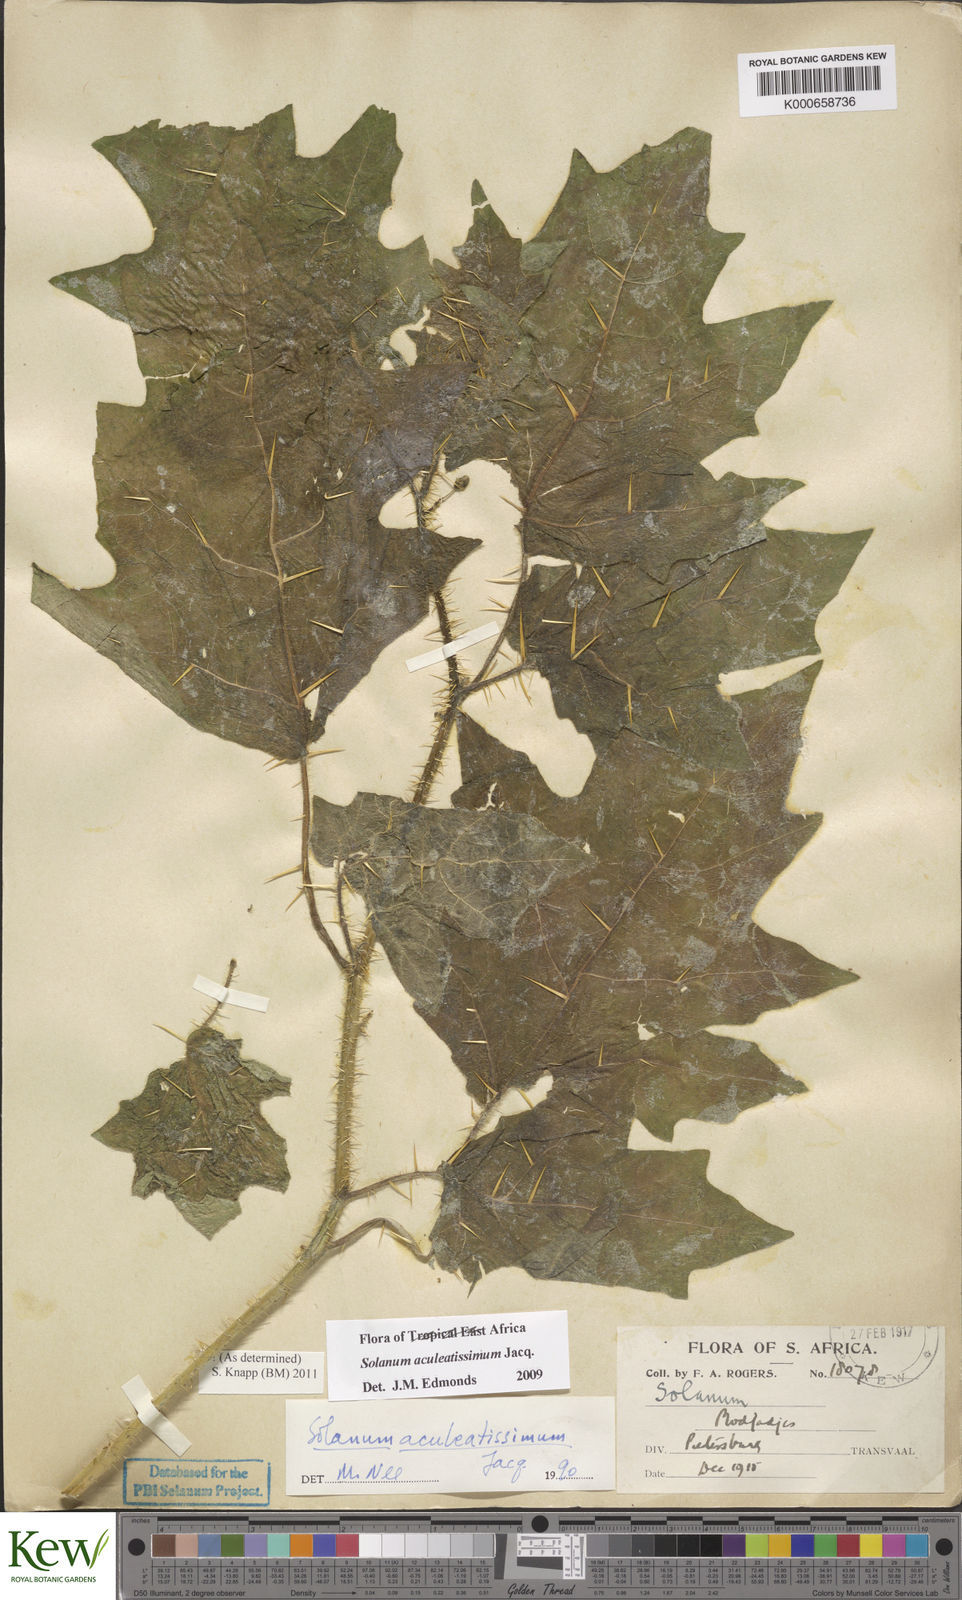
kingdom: Plantae
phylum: Tracheophyta
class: Magnoliopsida
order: Solanales
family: Solanaceae
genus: Solanum
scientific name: Solanum aculeatissimum
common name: Dutch eggplant
